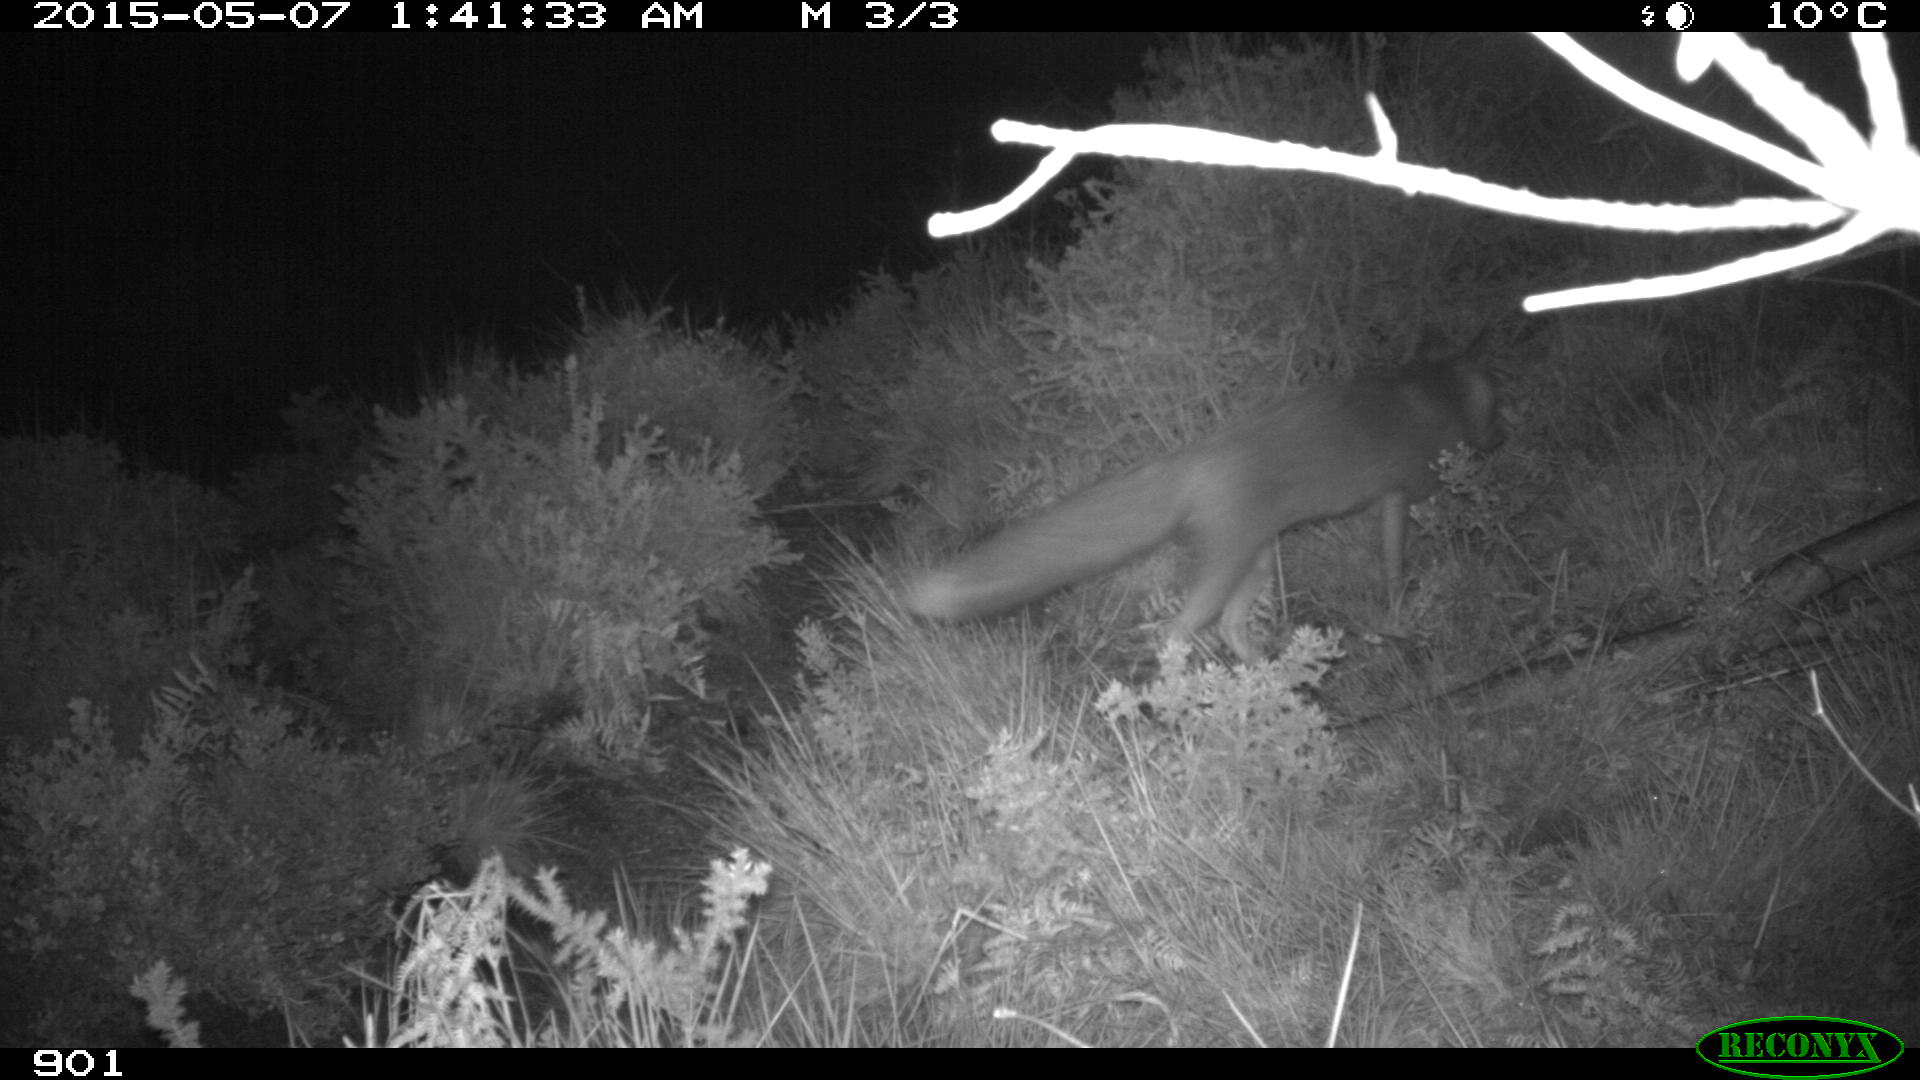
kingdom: Animalia
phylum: Chordata
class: Mammalia
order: Carnivora
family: Canidae
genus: Vulpes
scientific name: Vulpes vulpes
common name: Red fox
